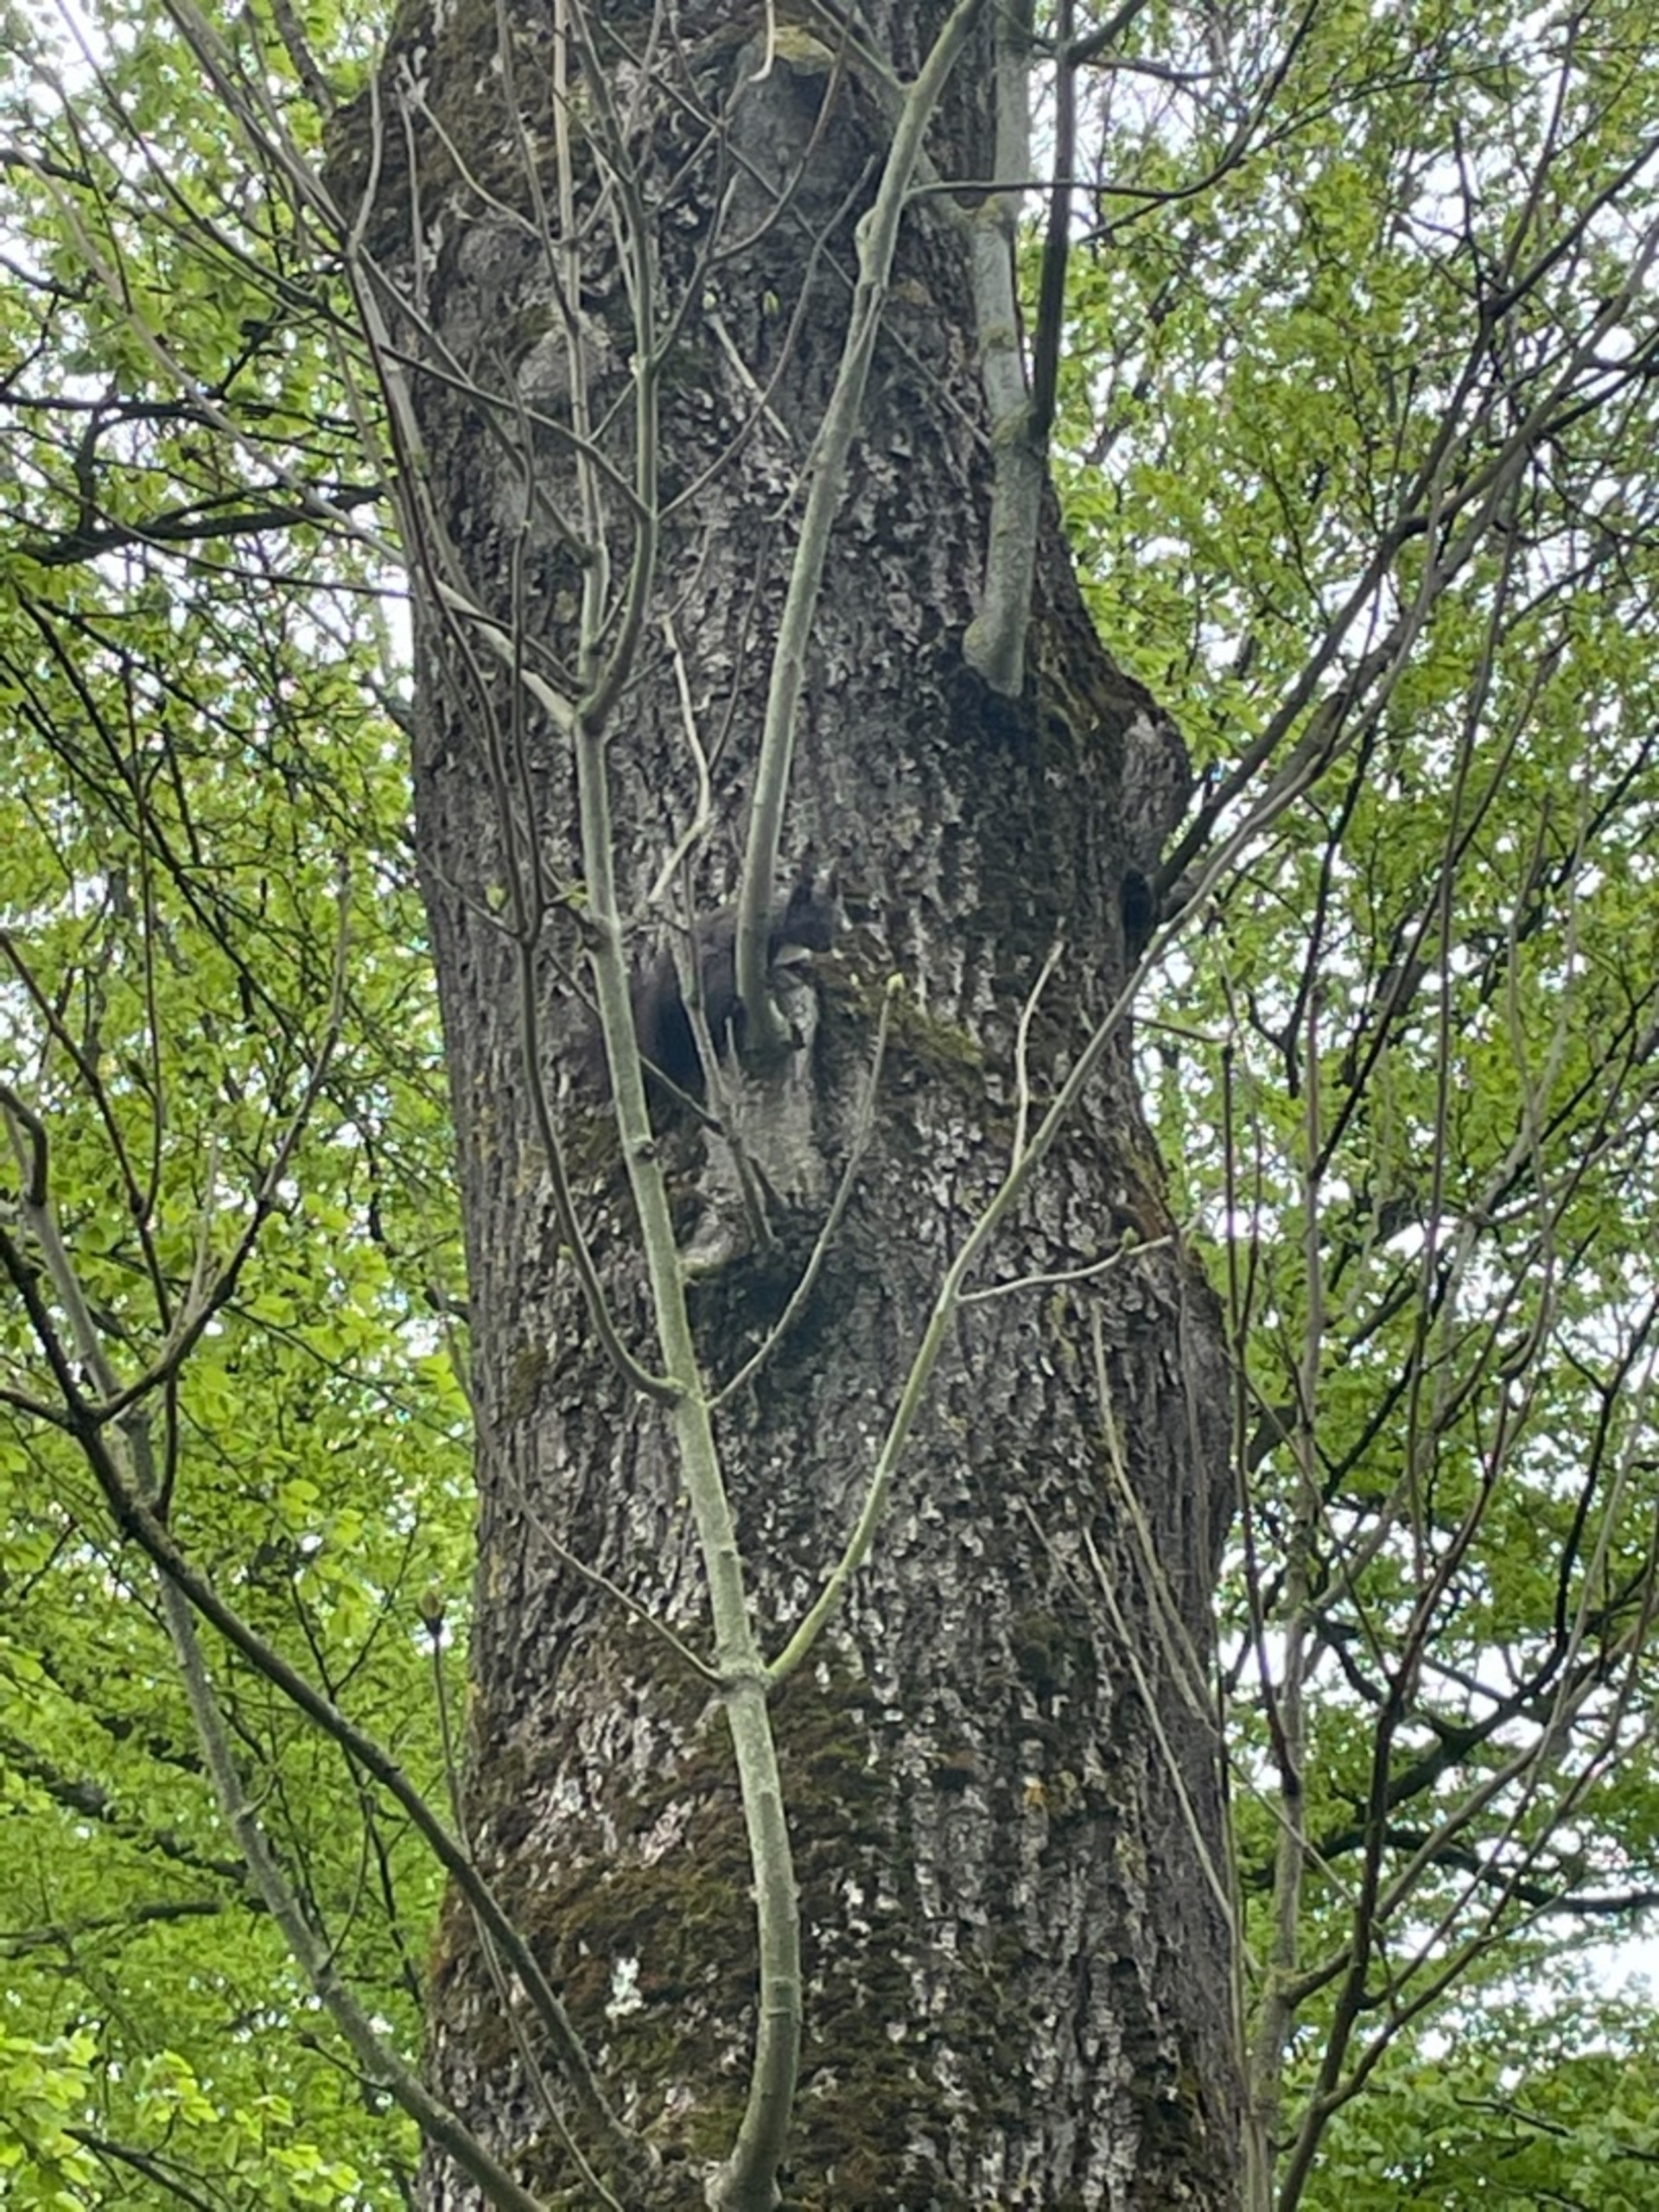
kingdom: Animalia
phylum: Chordata
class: Mammalia
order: Rodentia
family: Sciuridae
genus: Sciurus
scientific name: Sciurus vulgaris
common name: Egern
